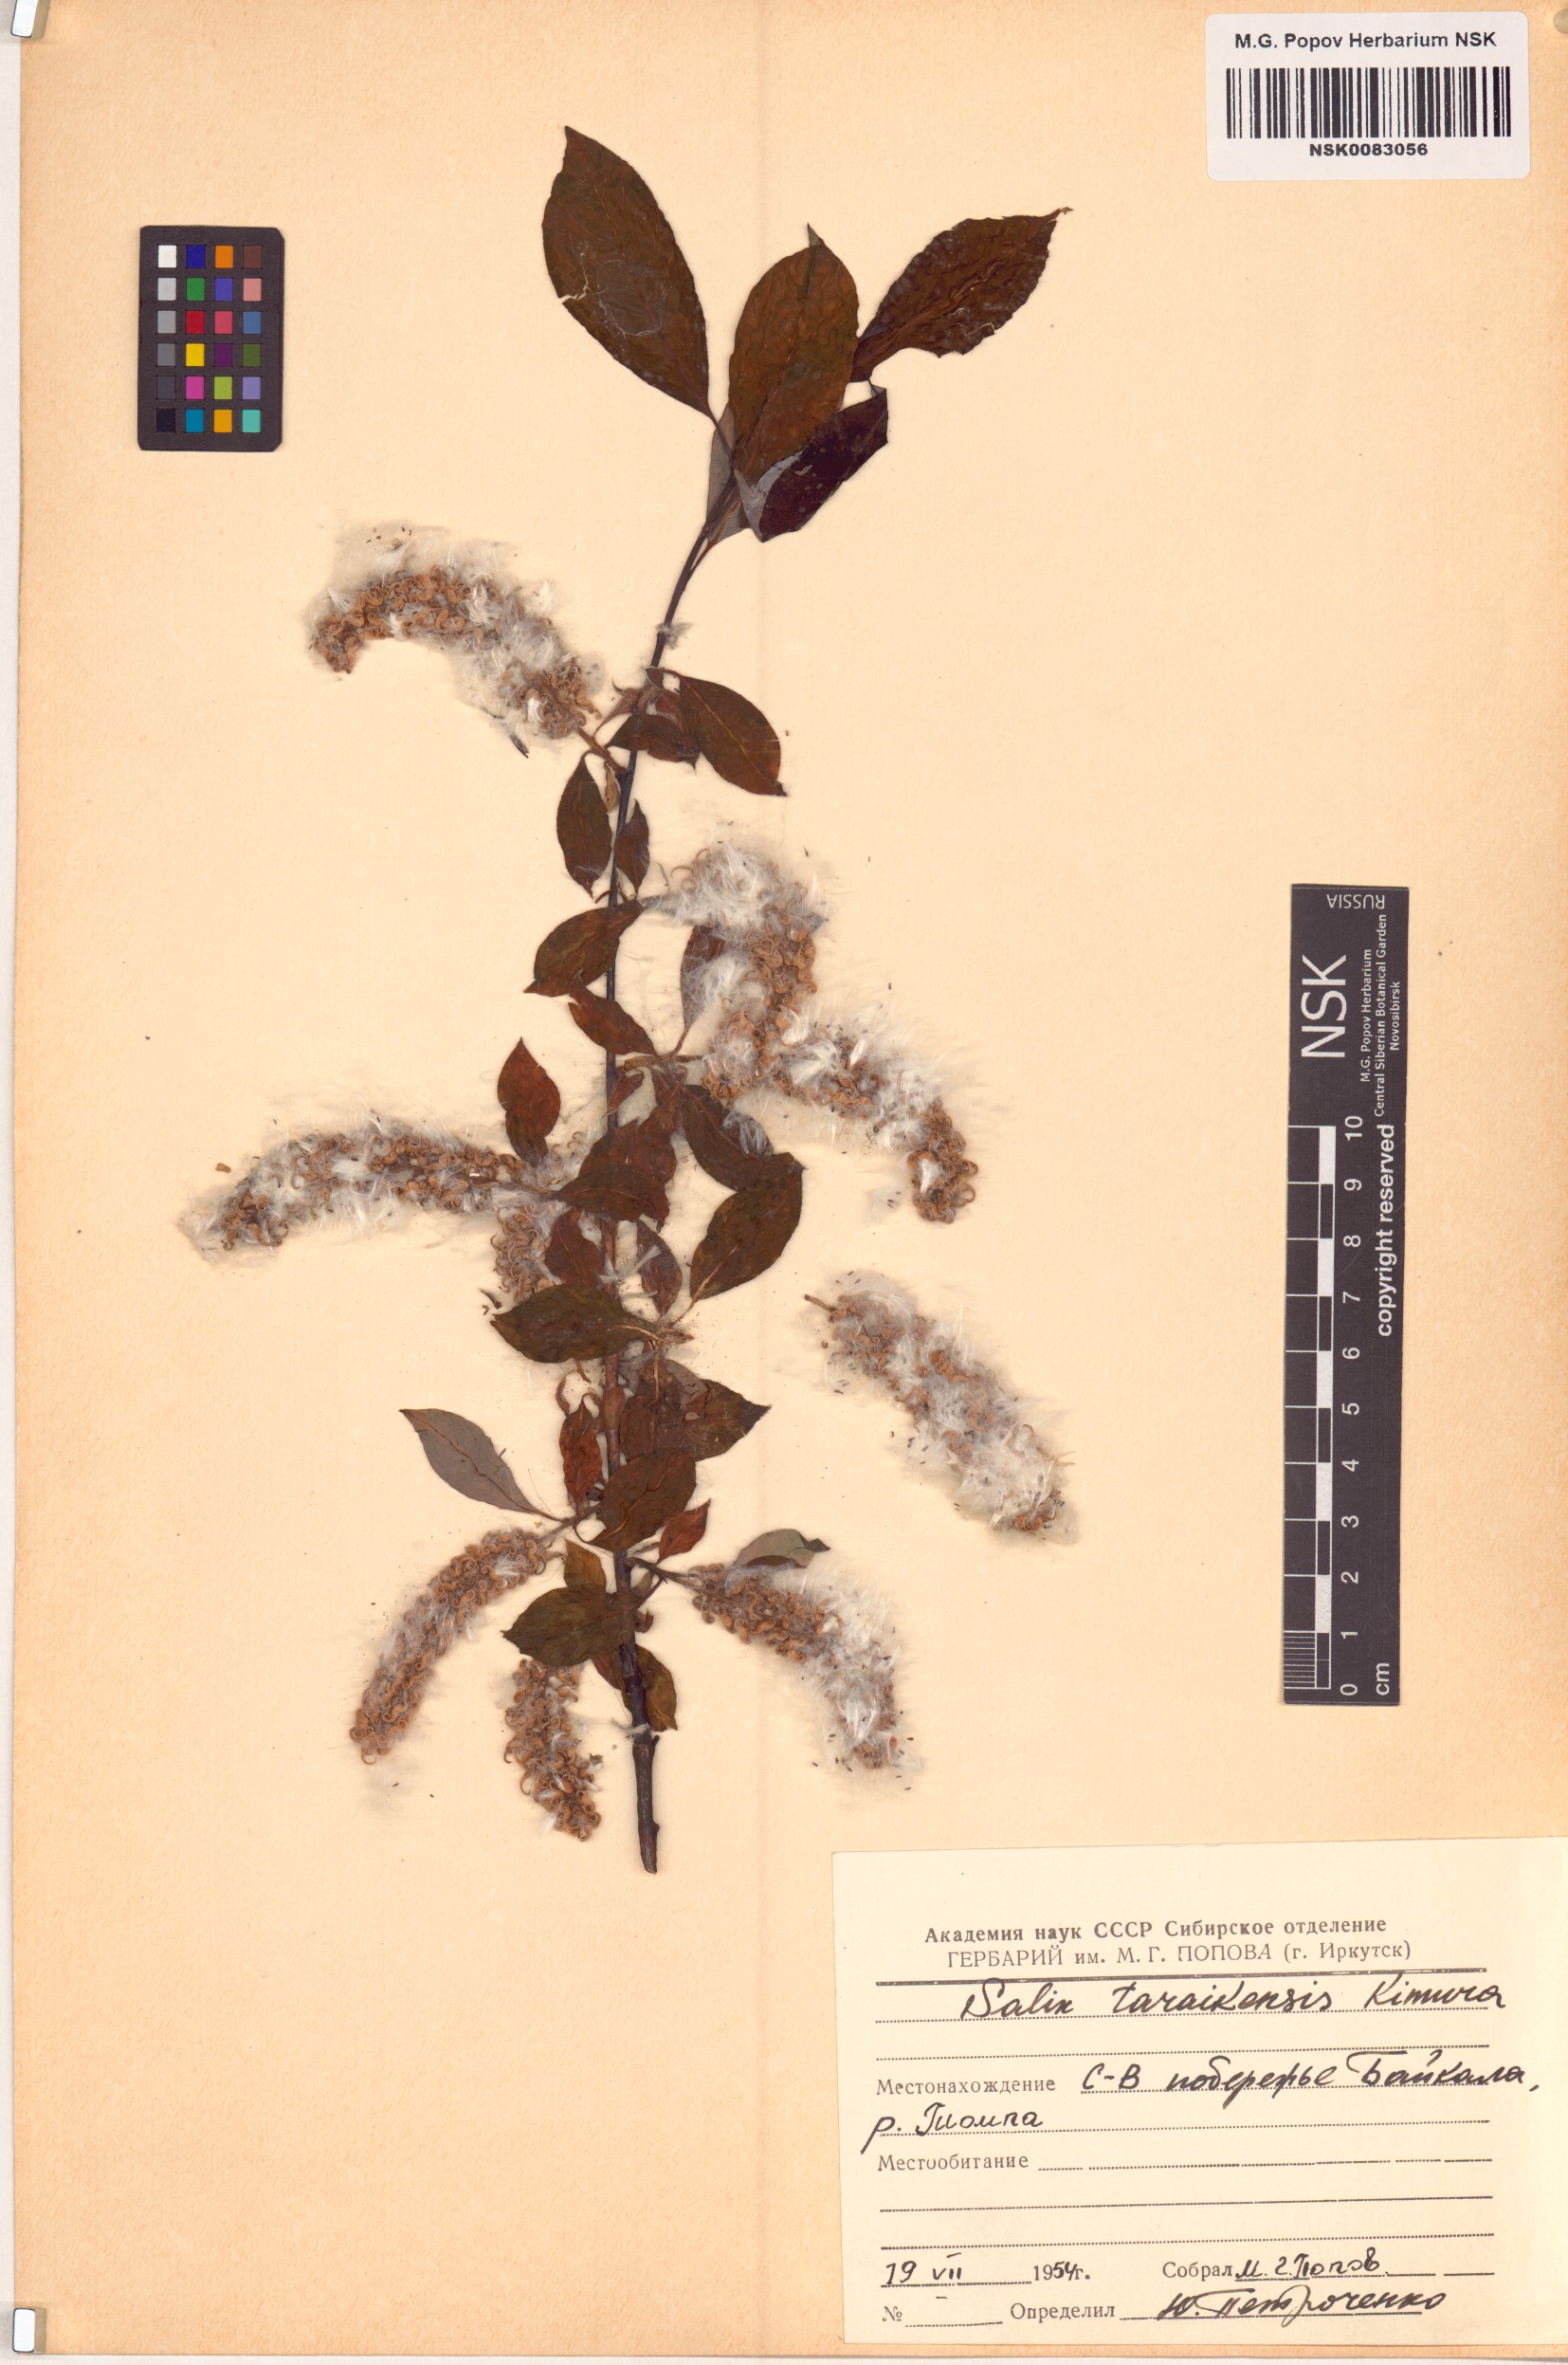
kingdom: Plantae
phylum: Tracheophyta
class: Magnoliopsida
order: Malpighiales
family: Salicaceae
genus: Salix
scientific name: Salix taraikensis
